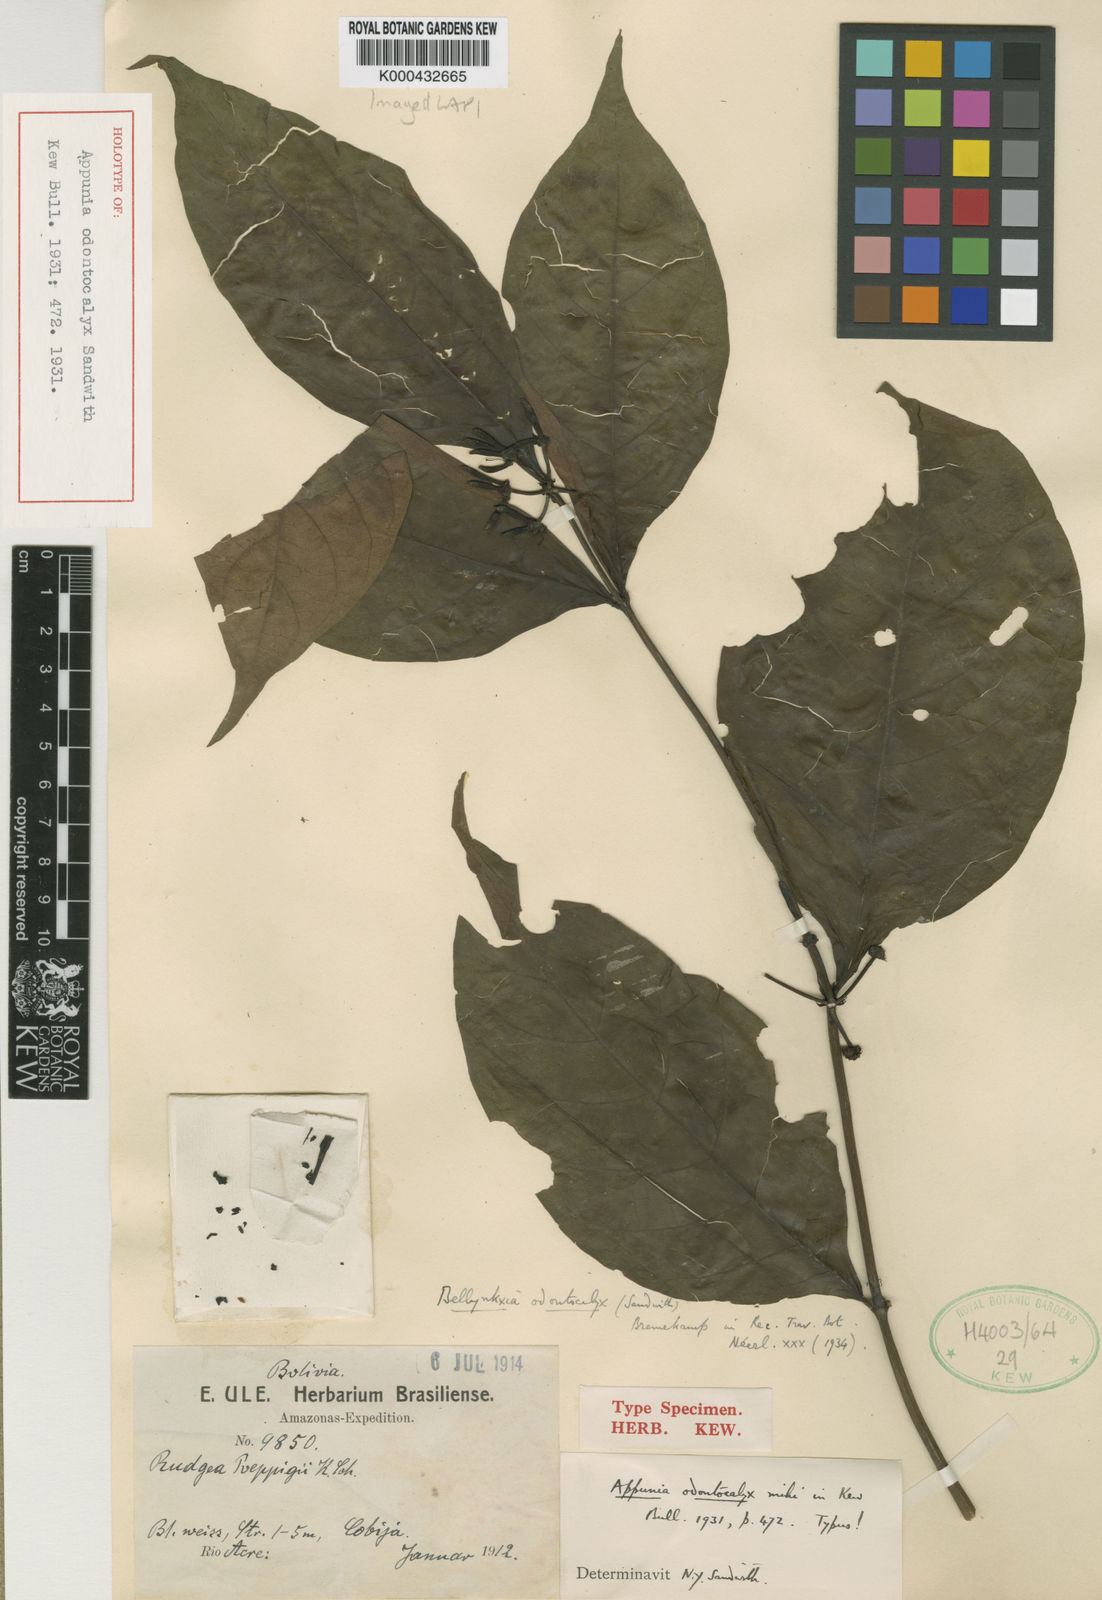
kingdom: Plantae
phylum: Tracheophyta
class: Magnoliopsida
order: Gentianales
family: Rubiaceae
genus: Appunia
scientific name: Appunia odontocalyx
